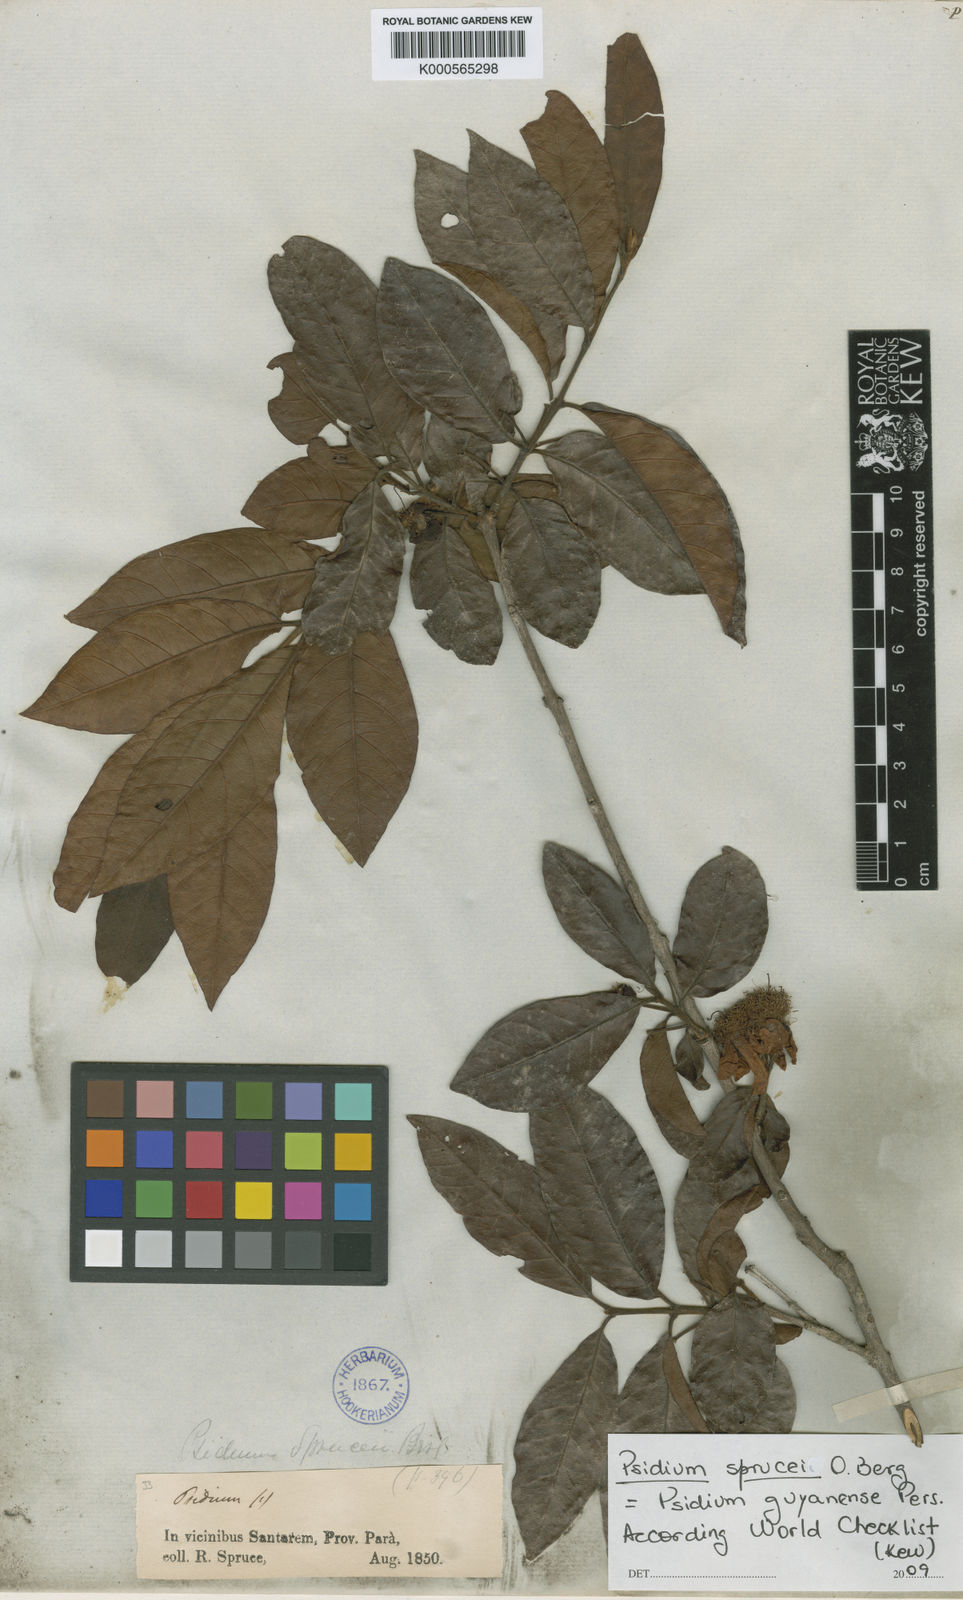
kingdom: Plantae
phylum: Tracheophyta
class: Magnoliopsida
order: Myrtales
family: Myrtaceae
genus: Psidium
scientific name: Psidium guyanense
